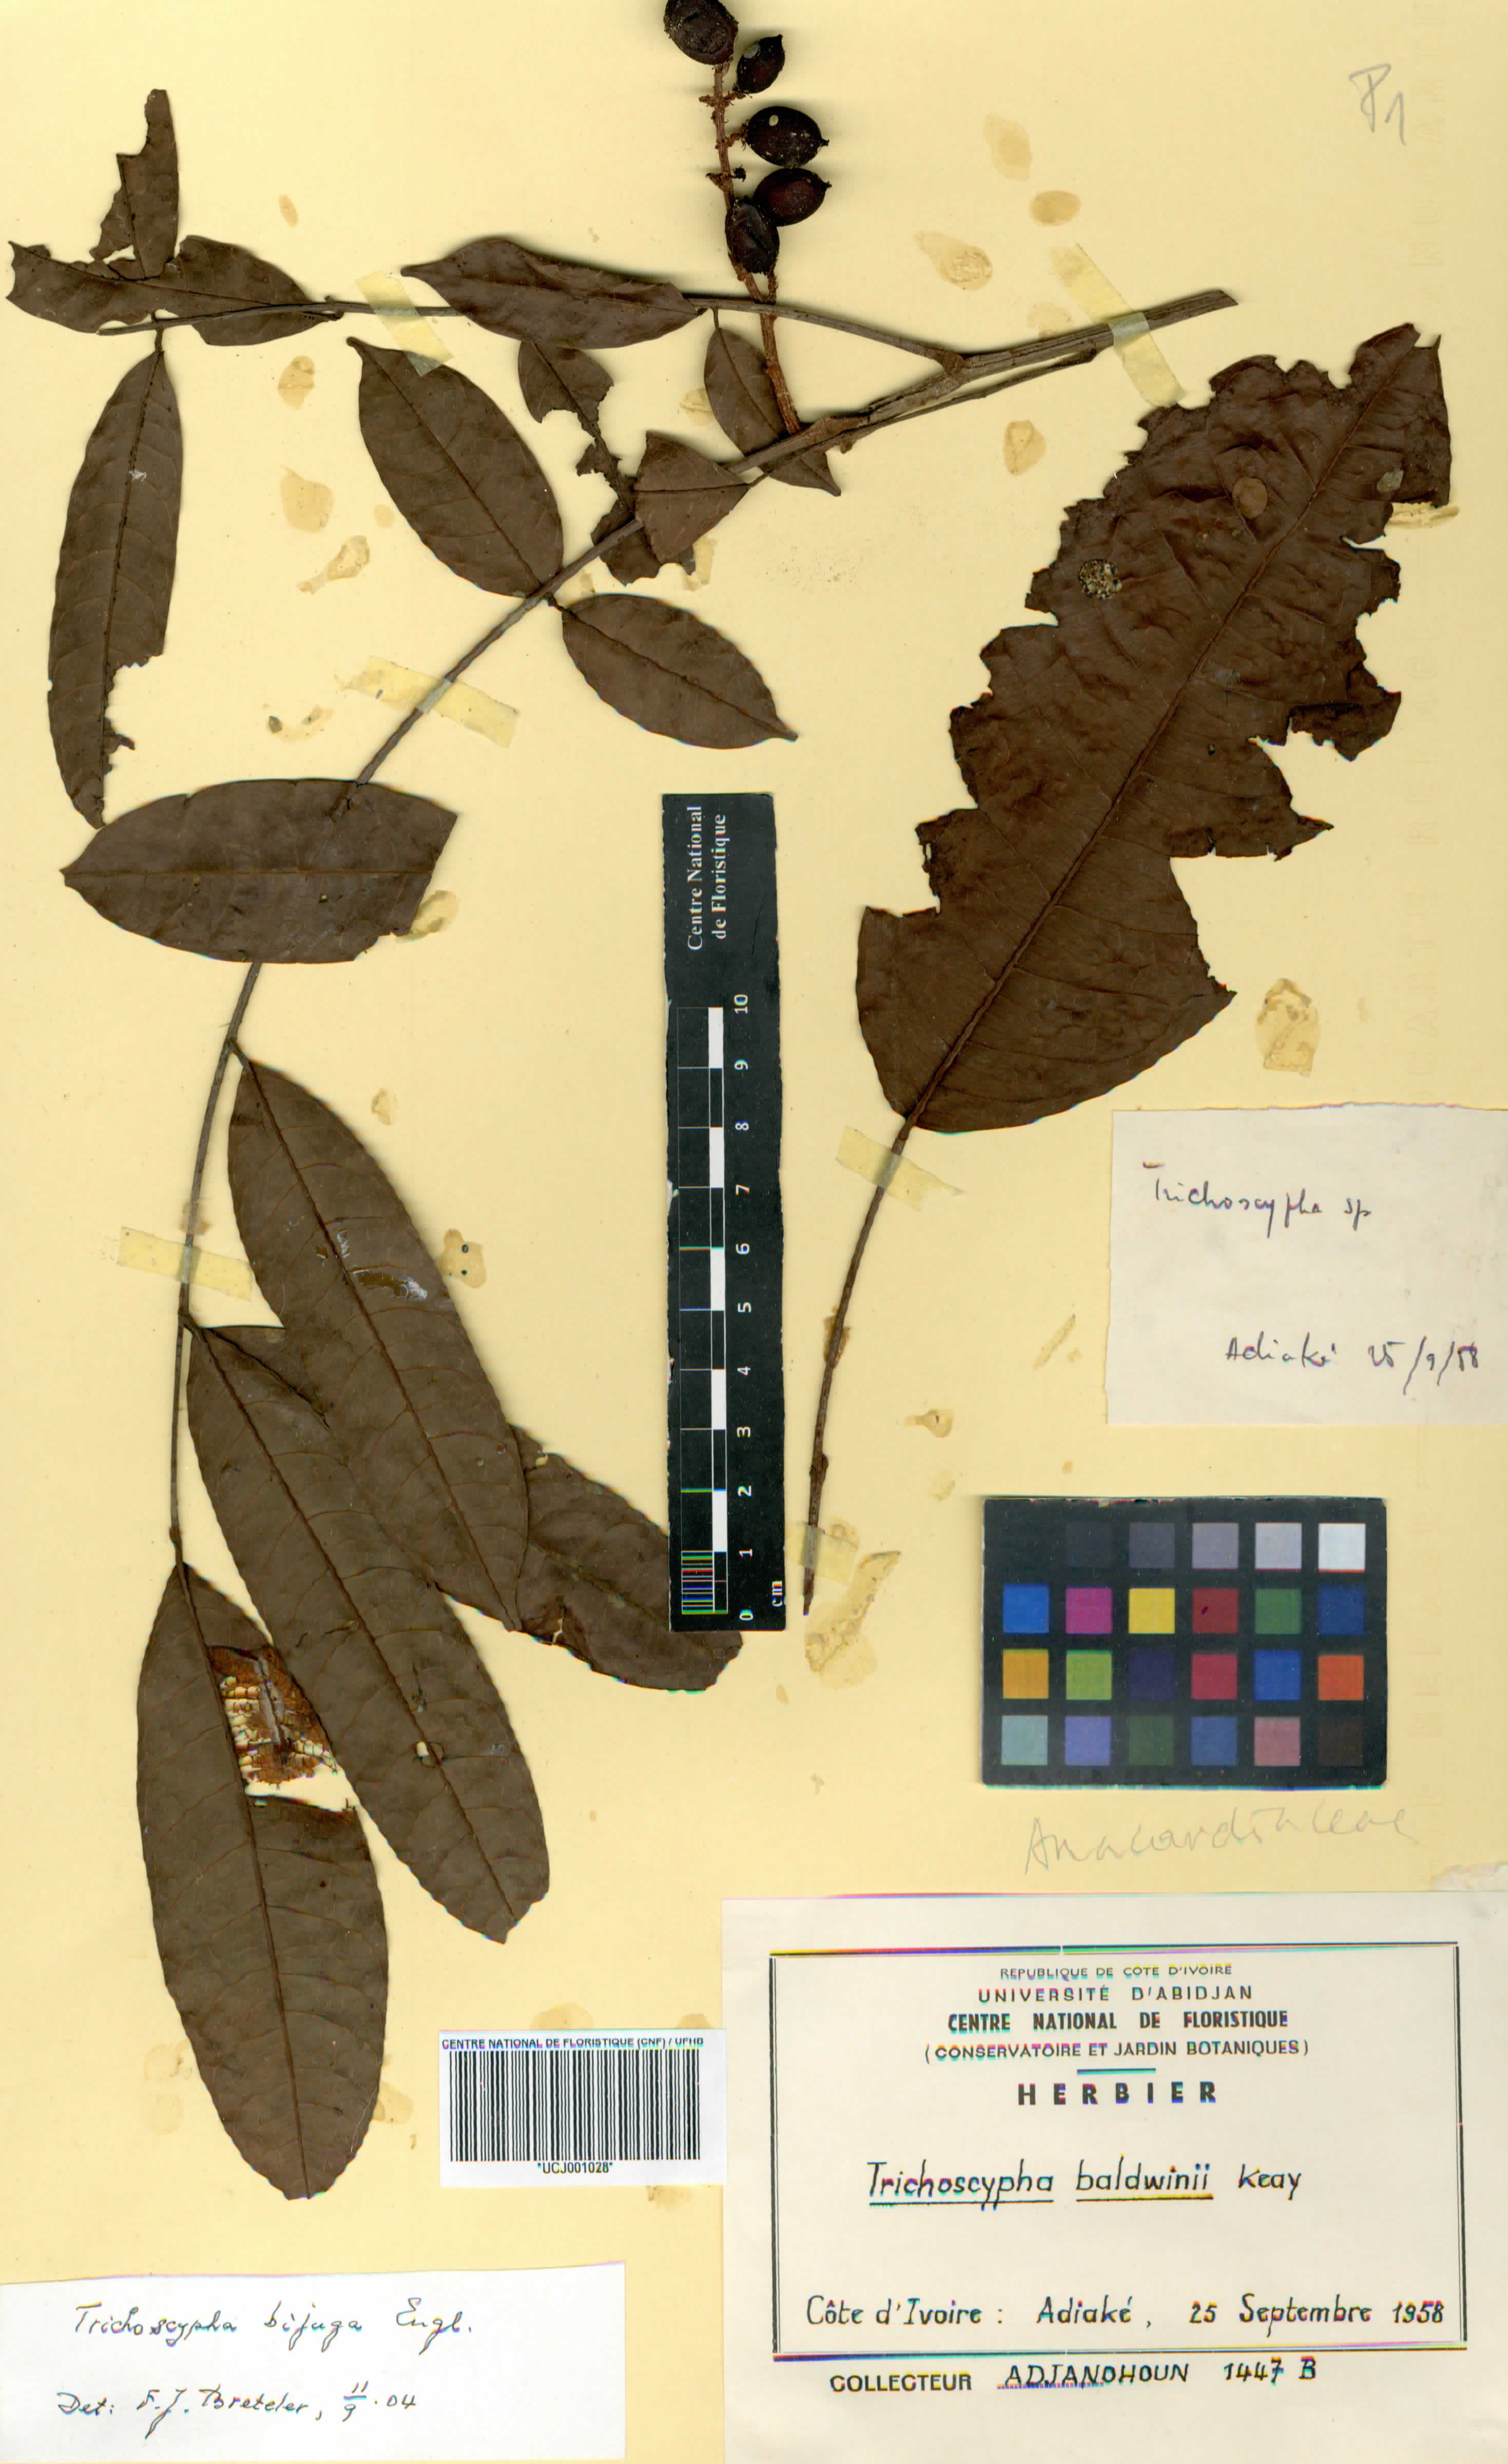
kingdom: Plantae
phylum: Tracheophyta
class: Magnoliopsida
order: Sapindales
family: Anacardiaceae
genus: Trichoscypha
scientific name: Trichoscypha baldwinii
